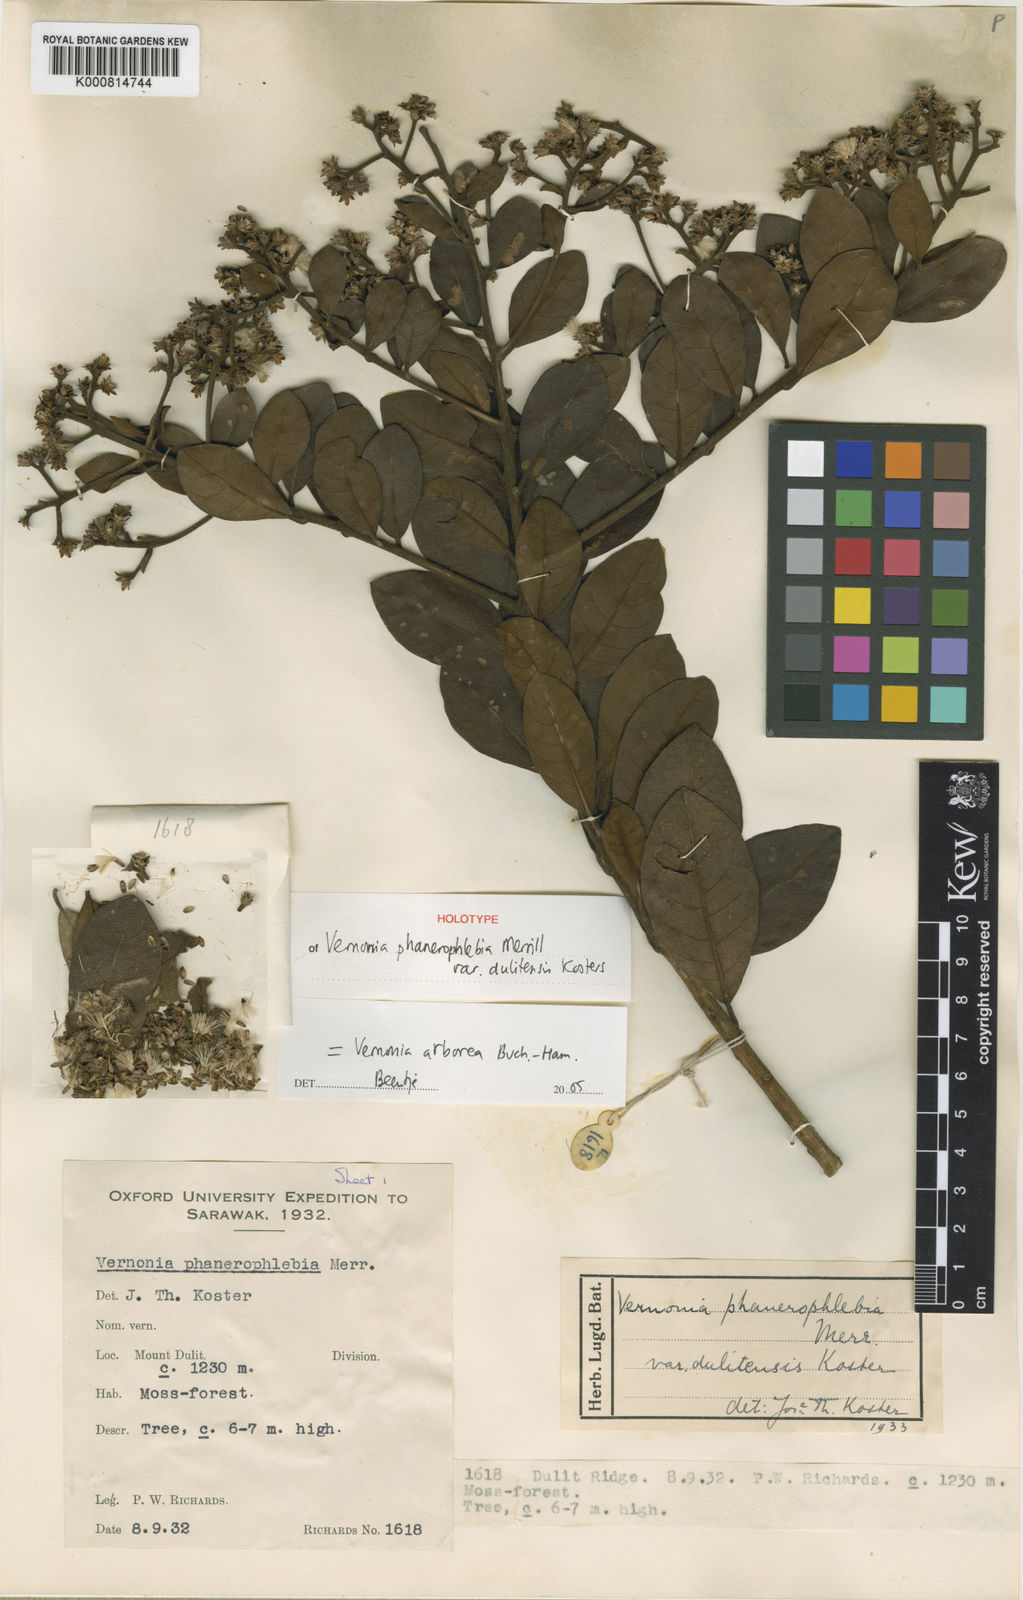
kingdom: Plantae
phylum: Tracheophyta
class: Magnoliopsida
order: Asterales
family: Asteraceae
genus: Strobocalyx
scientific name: Strobocalyx arborea
